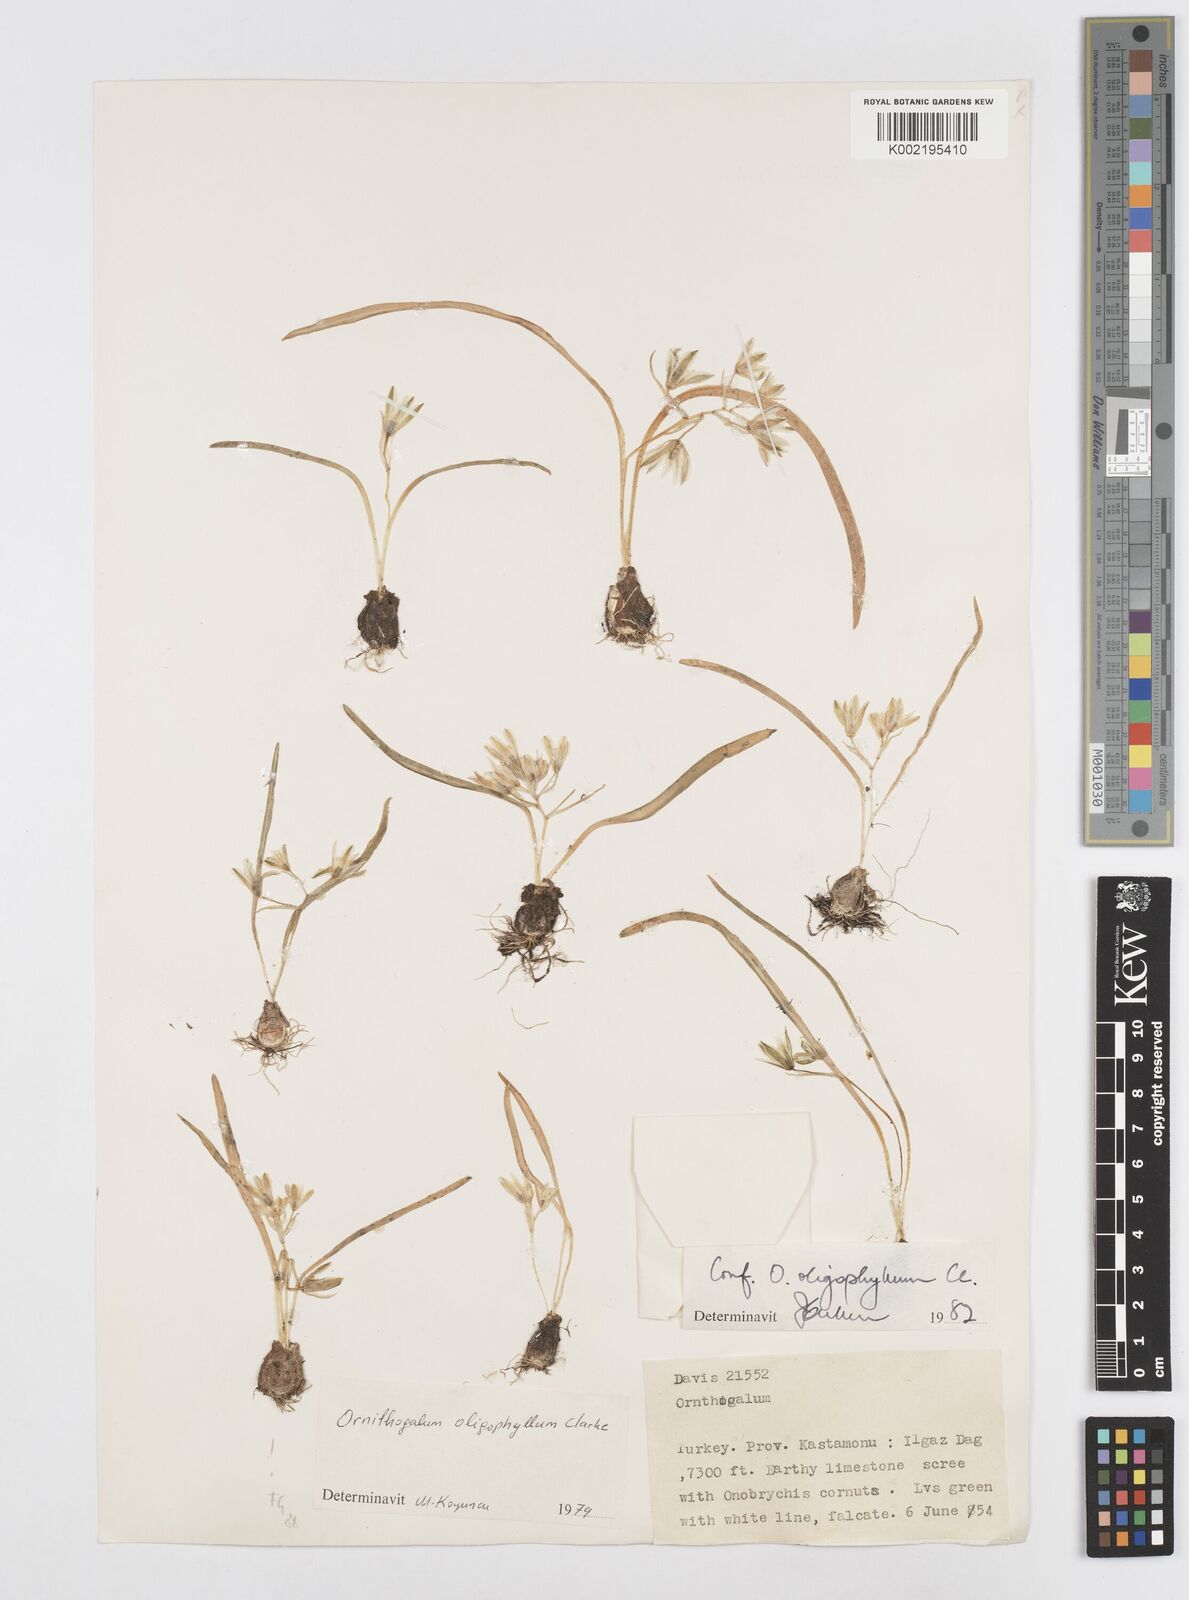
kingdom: Plantae
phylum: Tracheophyta
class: Liliopsida
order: Asparagales
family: Asparagaceae
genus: Ornithogalum
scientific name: Ornithogalum sigmoideum
